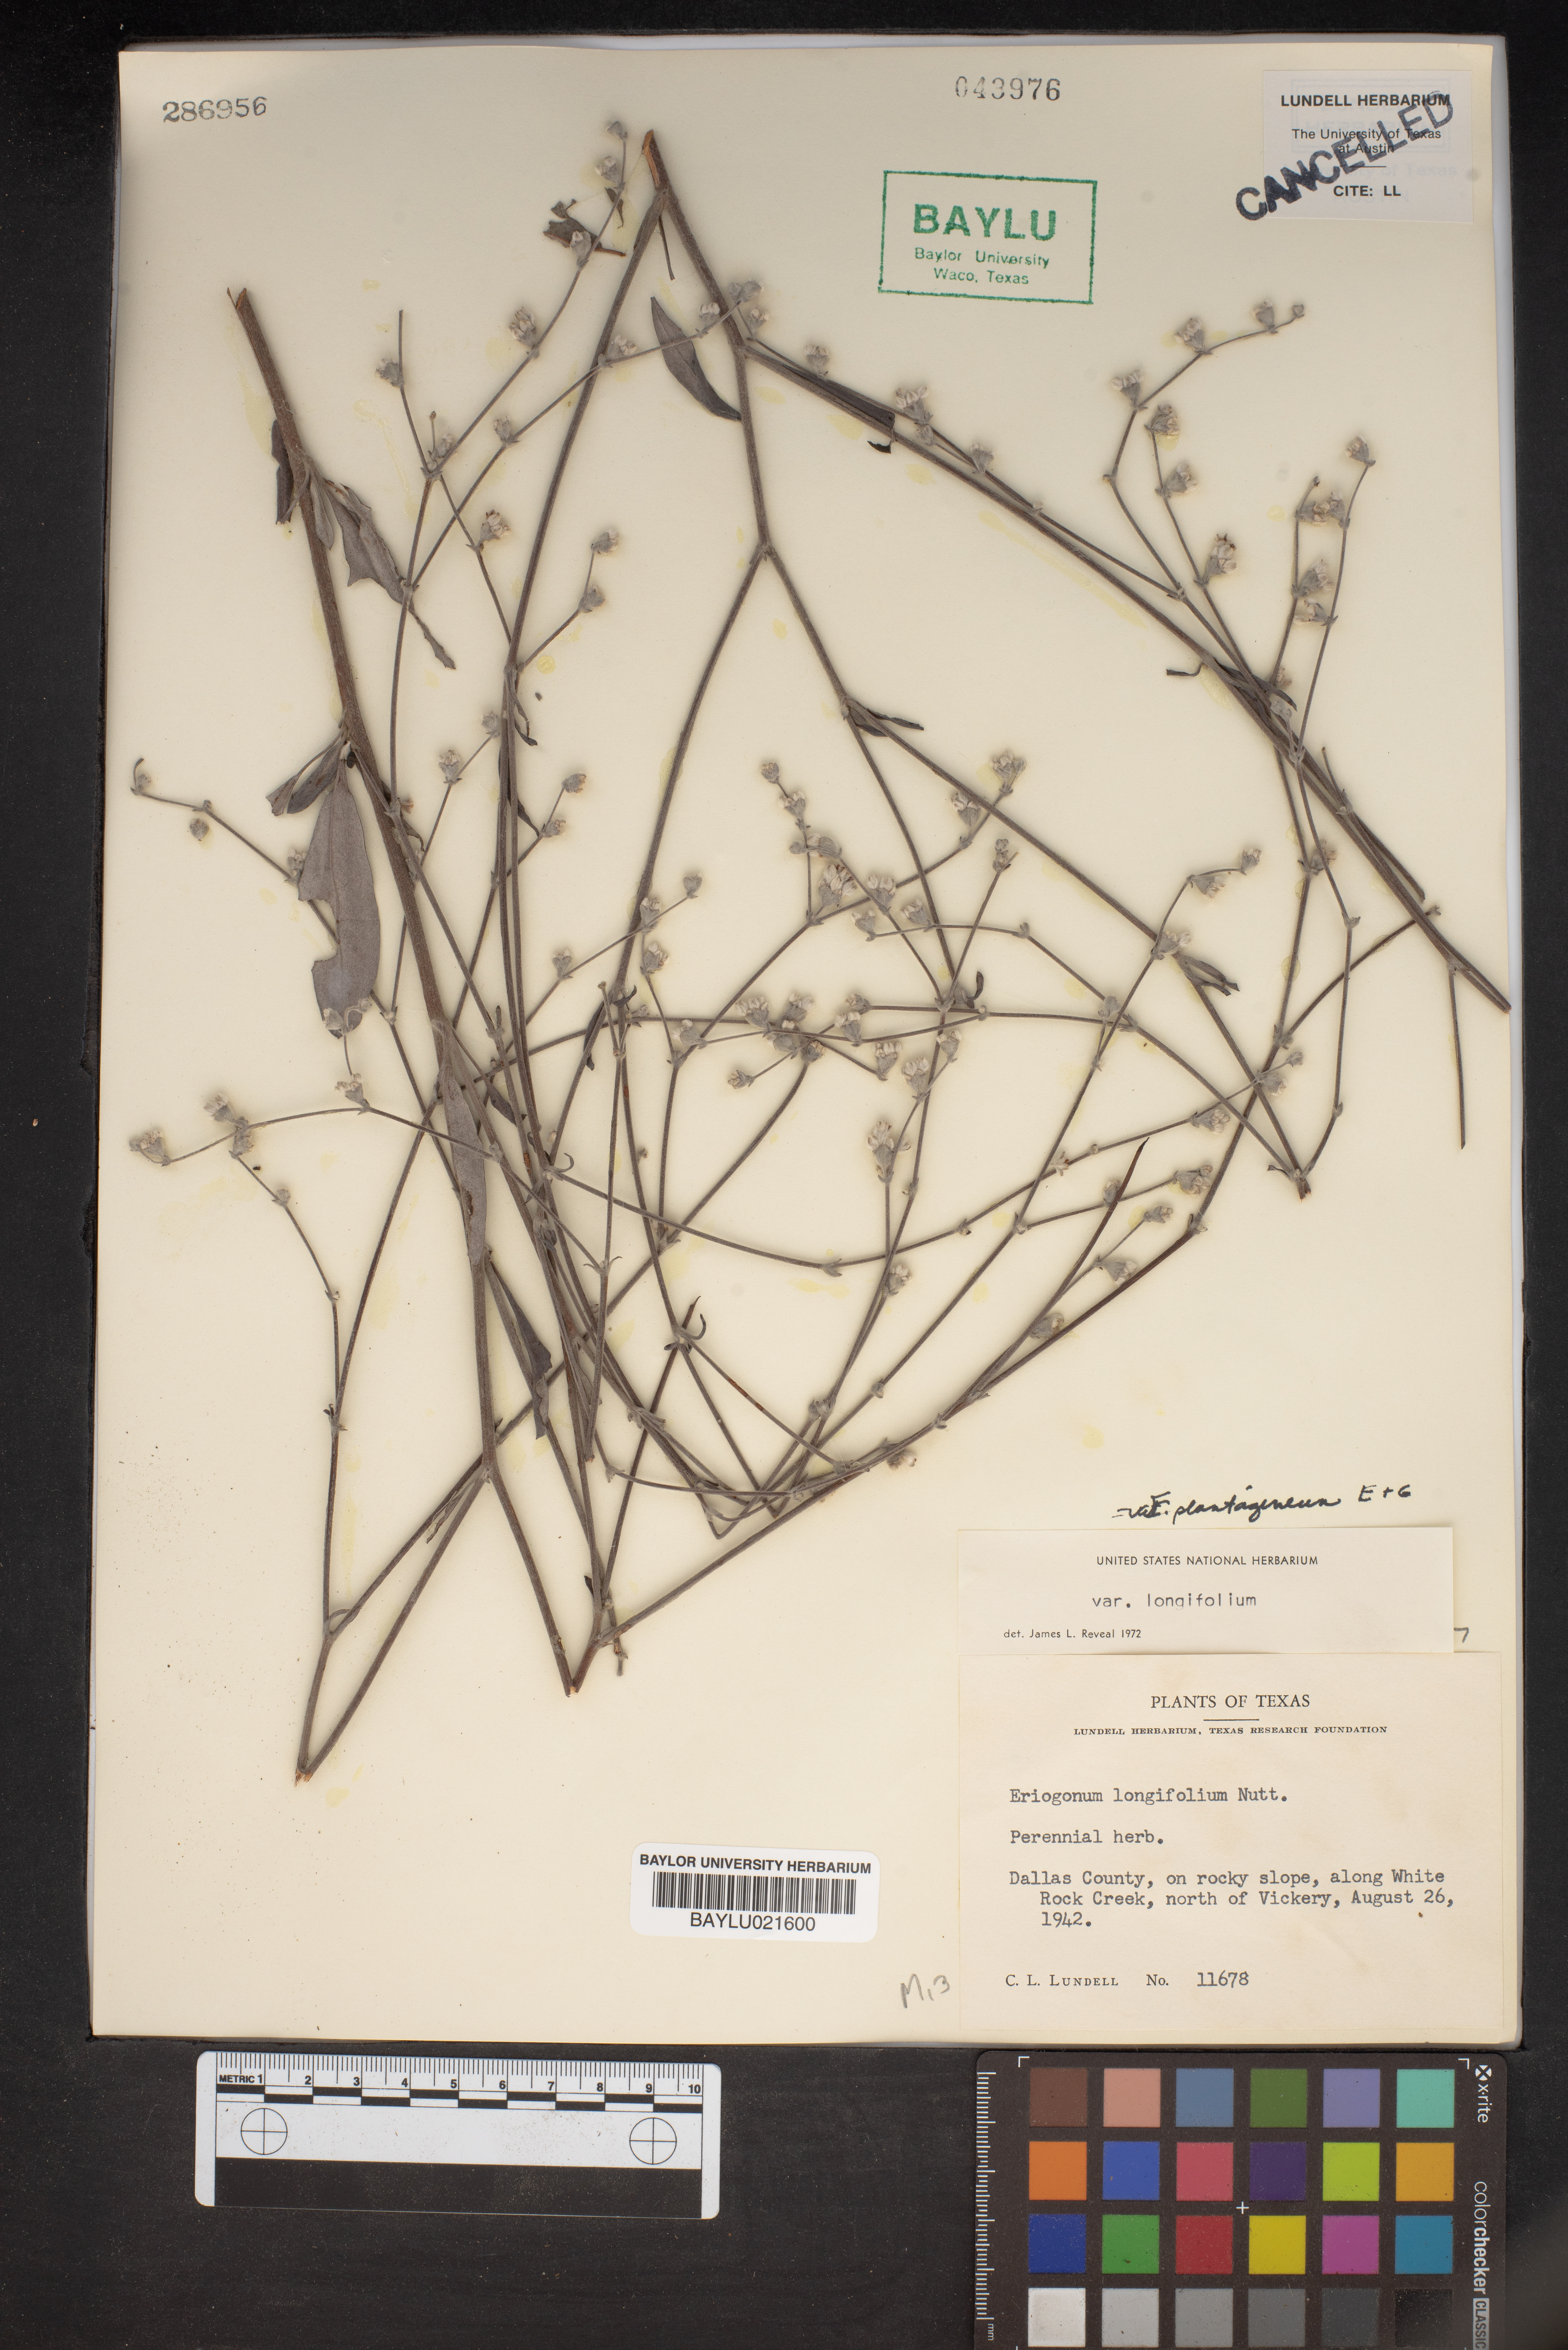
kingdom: Plantae
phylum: Tracheophyta
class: Magnoliopsida
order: Caryophyllales
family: Polygonaceae
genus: Eriogonum
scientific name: Eriogonum longifolium
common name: Longleaf wild buckwheat
